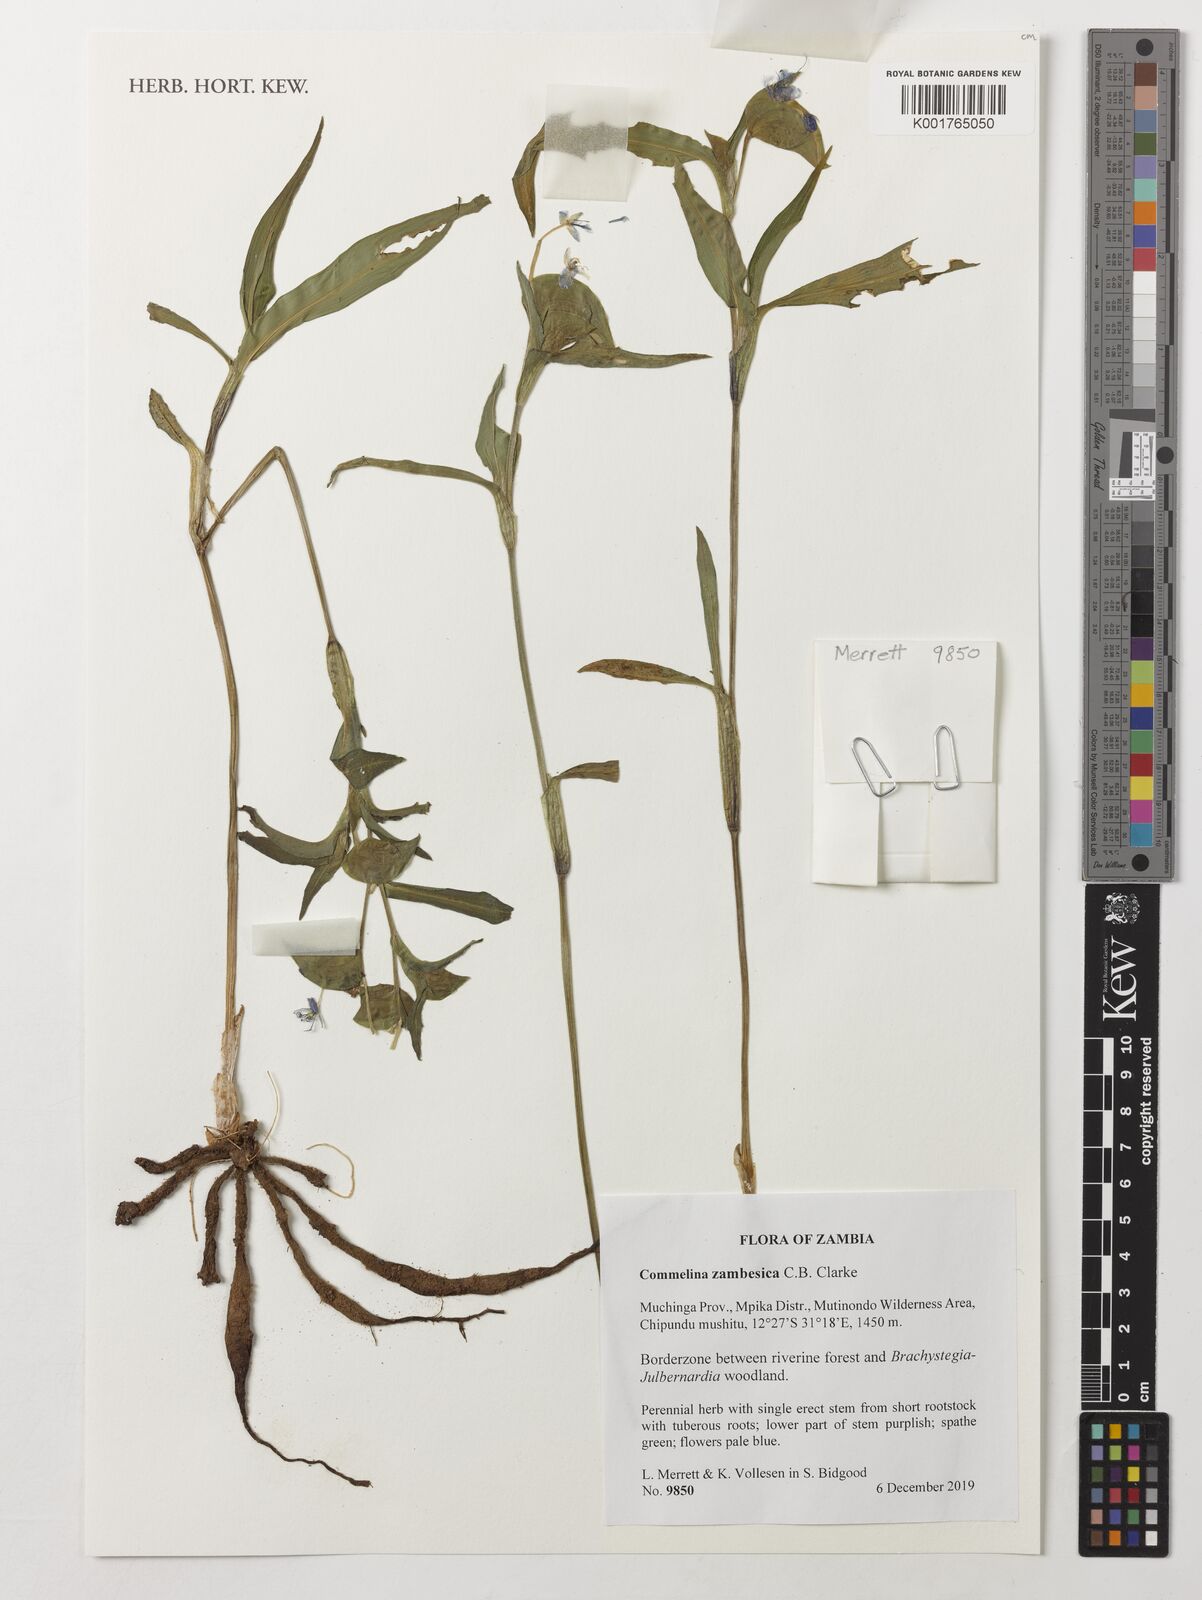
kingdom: Plantae
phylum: Tracheophyta
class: Liliopsida
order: Commelinales
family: Commelinaceae
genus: Commelina
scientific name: Commelina zambesica
